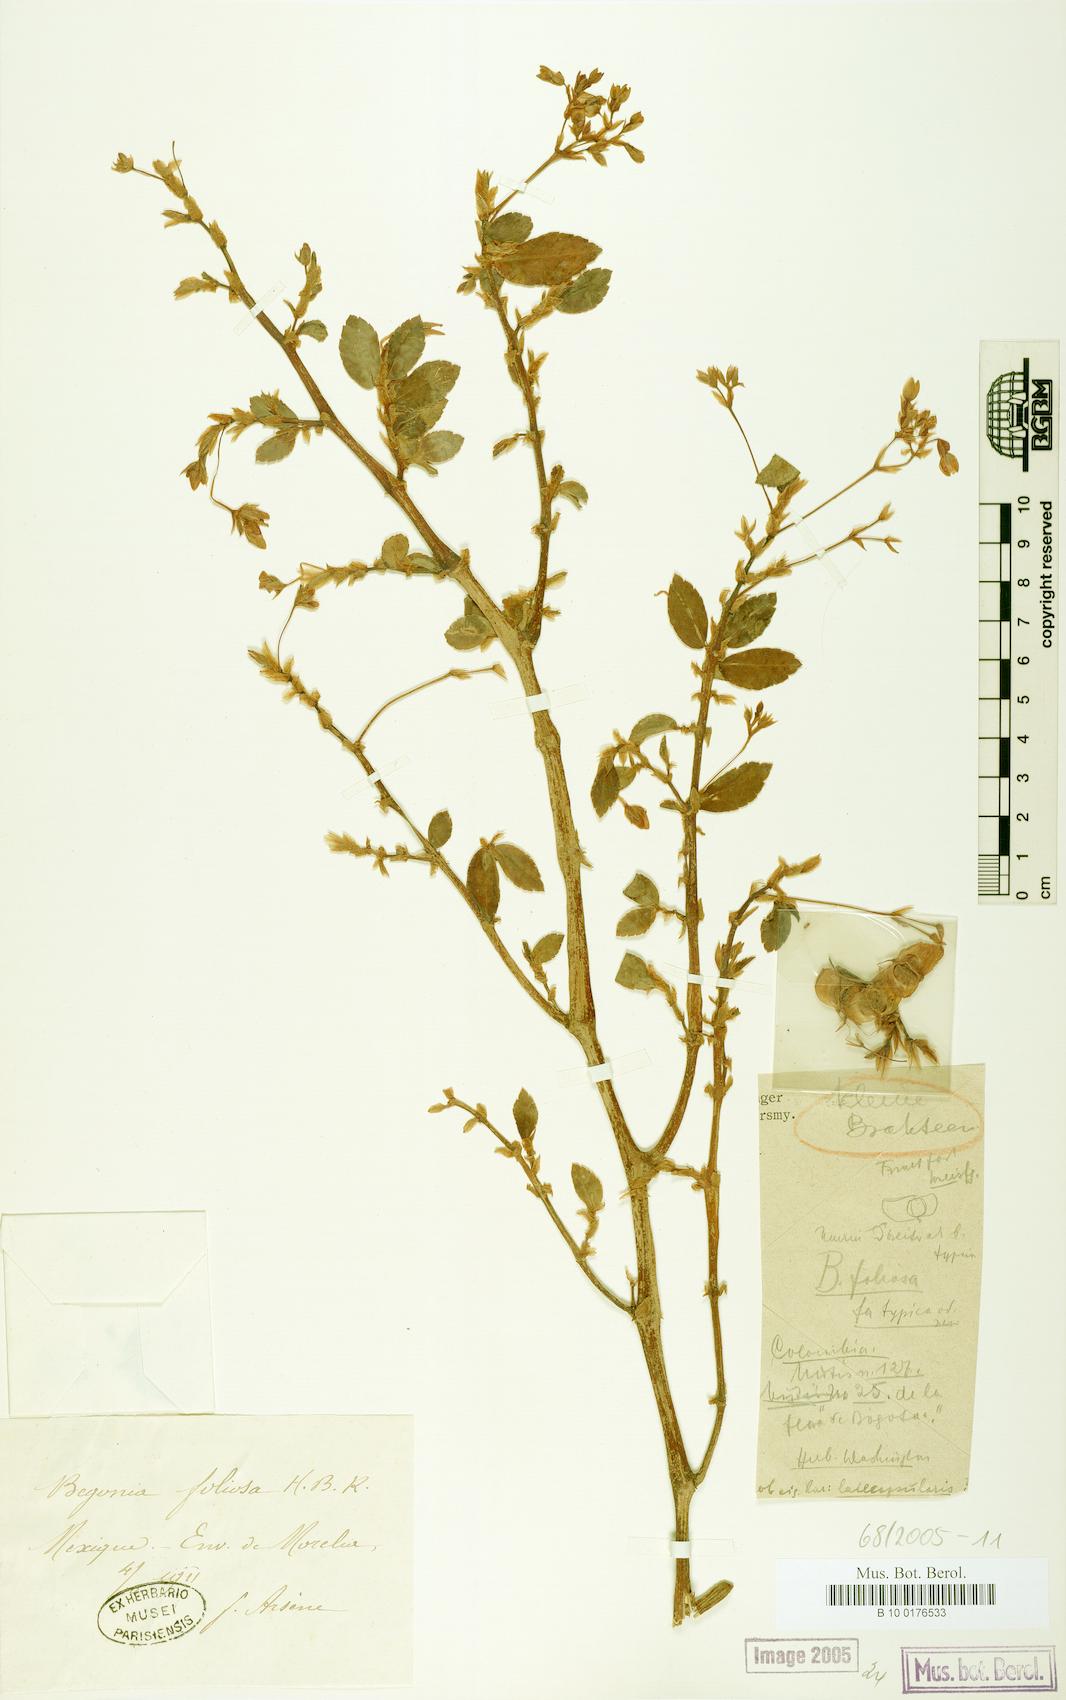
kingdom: Plantae
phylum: Tracheophyta
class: Magnoliopsida
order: Cucurbitales
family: Begoniaceae
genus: Begonia
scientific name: Begonia foliosa
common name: Fern begonia
